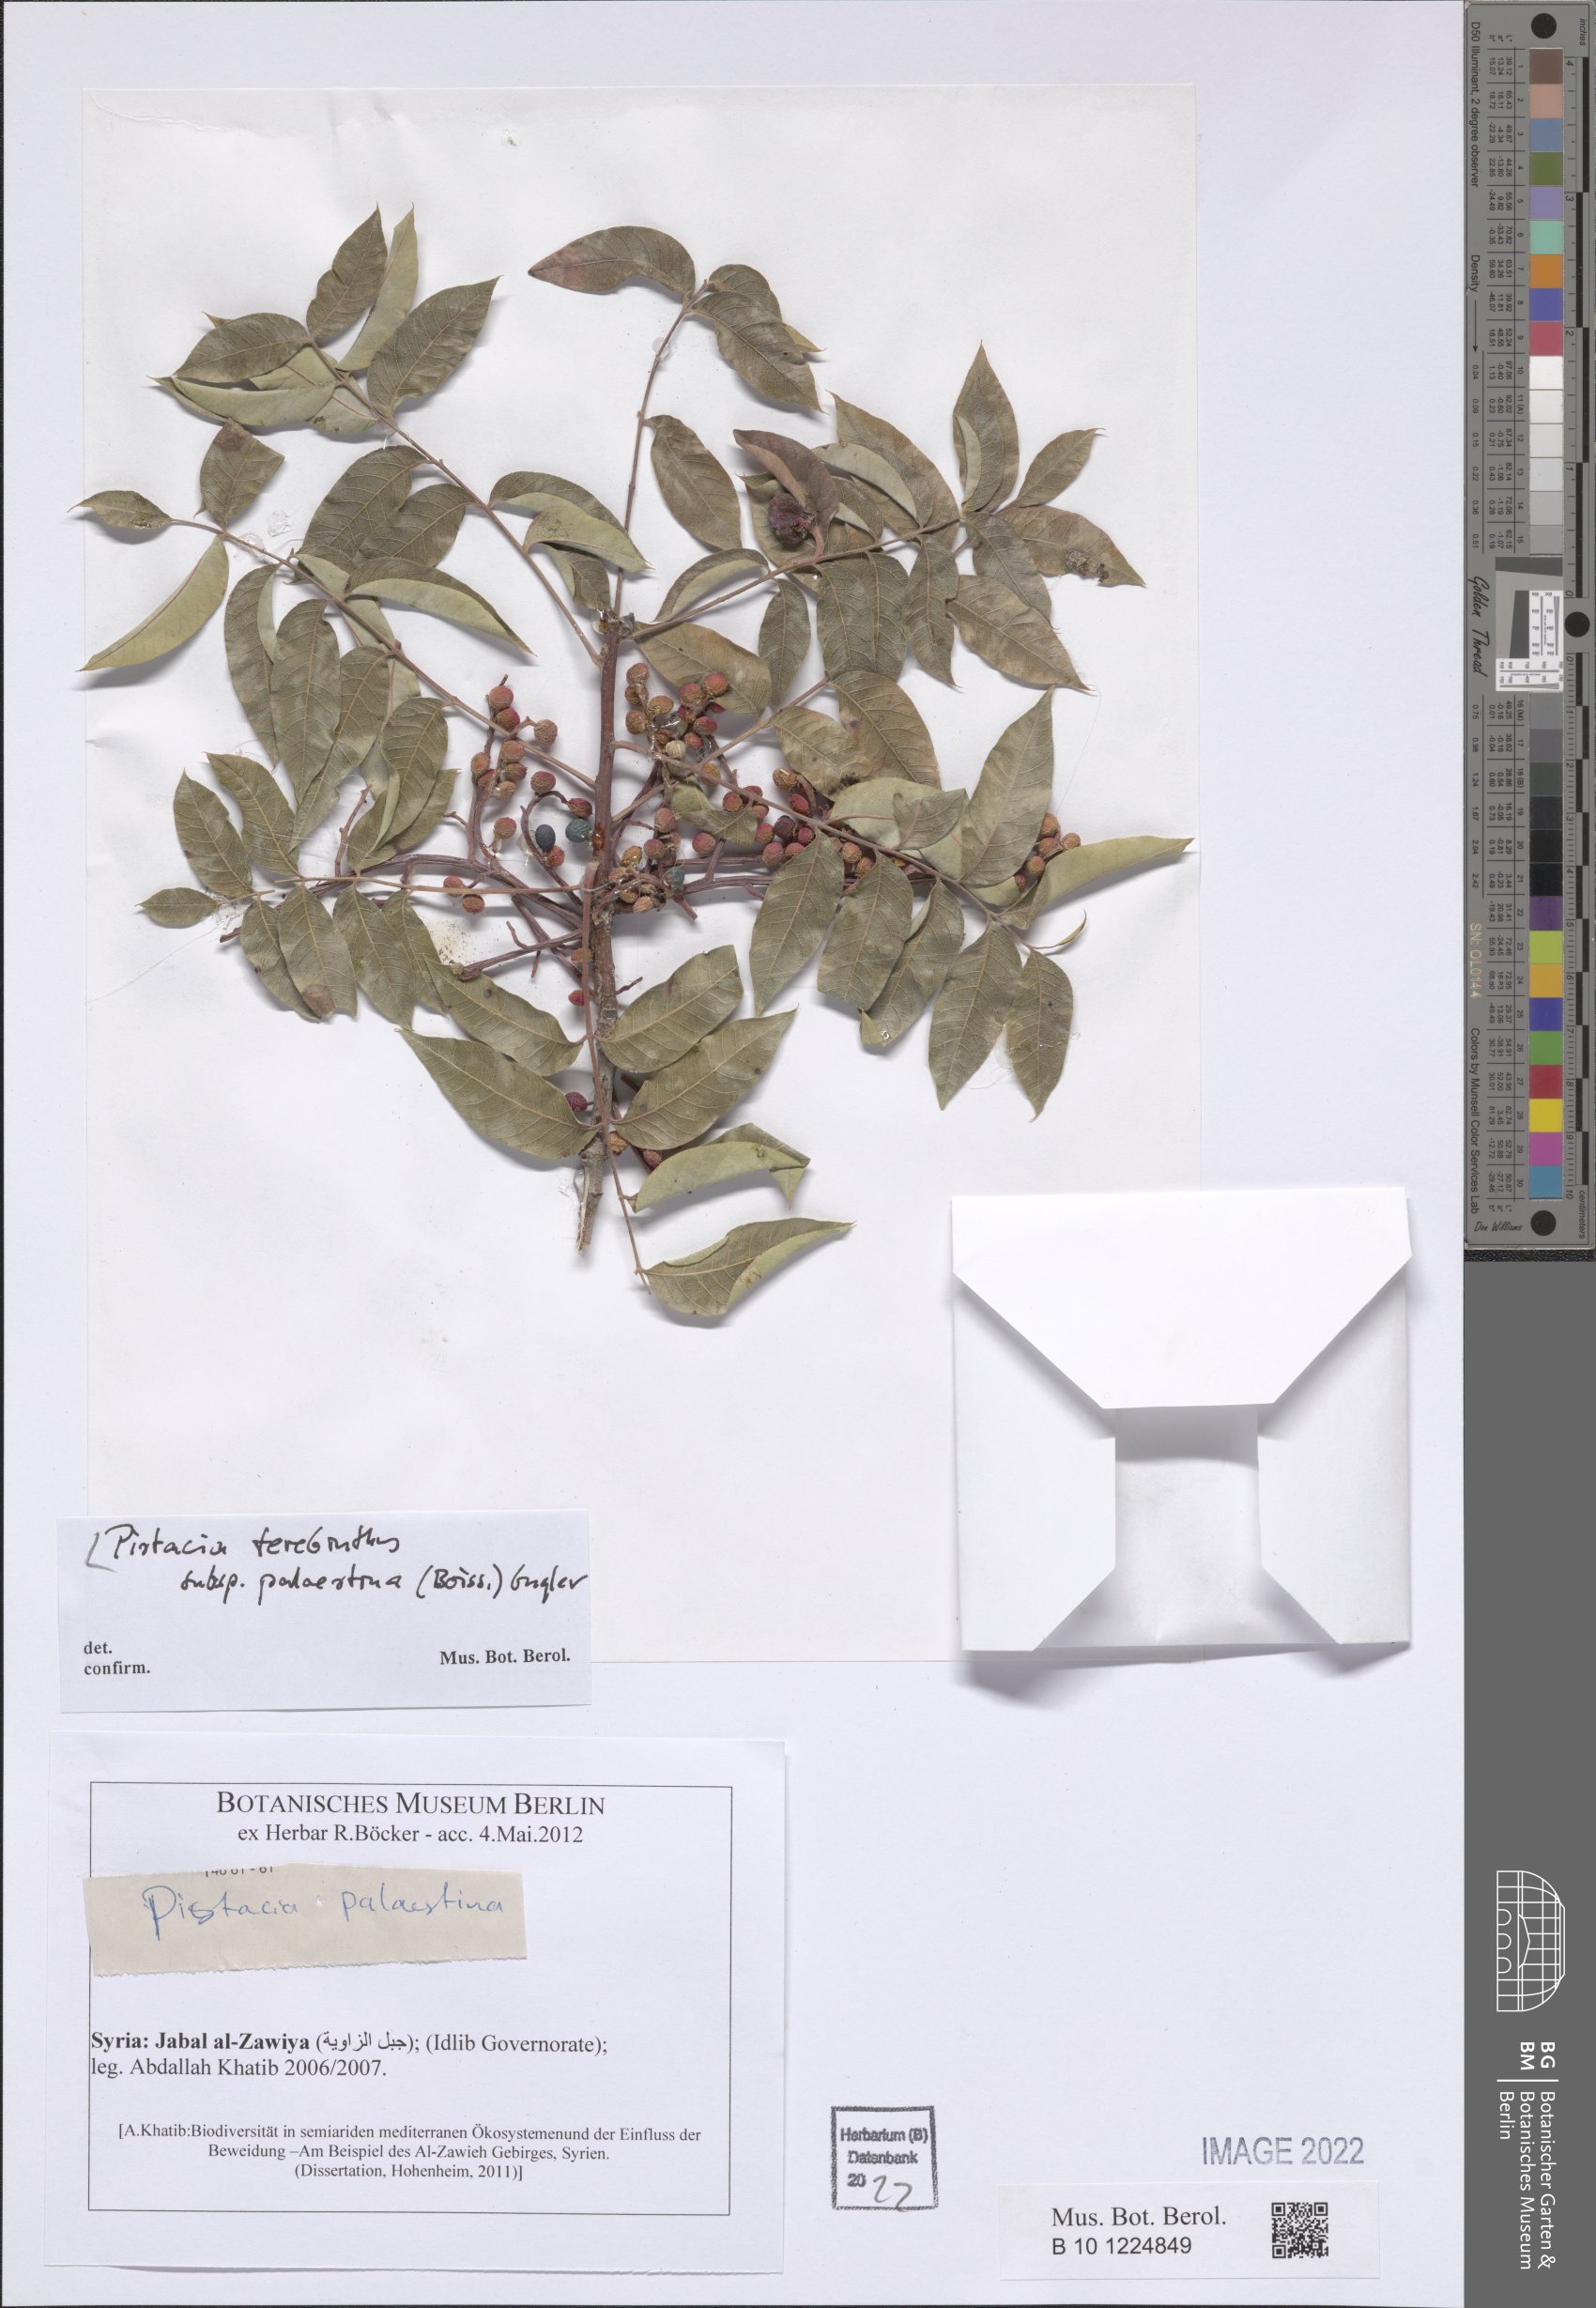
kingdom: Plantae
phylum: Tracheophyta
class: Magnoliopsida
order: Sapindales
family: Anacardiaceae
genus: Pistacia
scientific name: Pistacia terebinthus
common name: Terebinth
